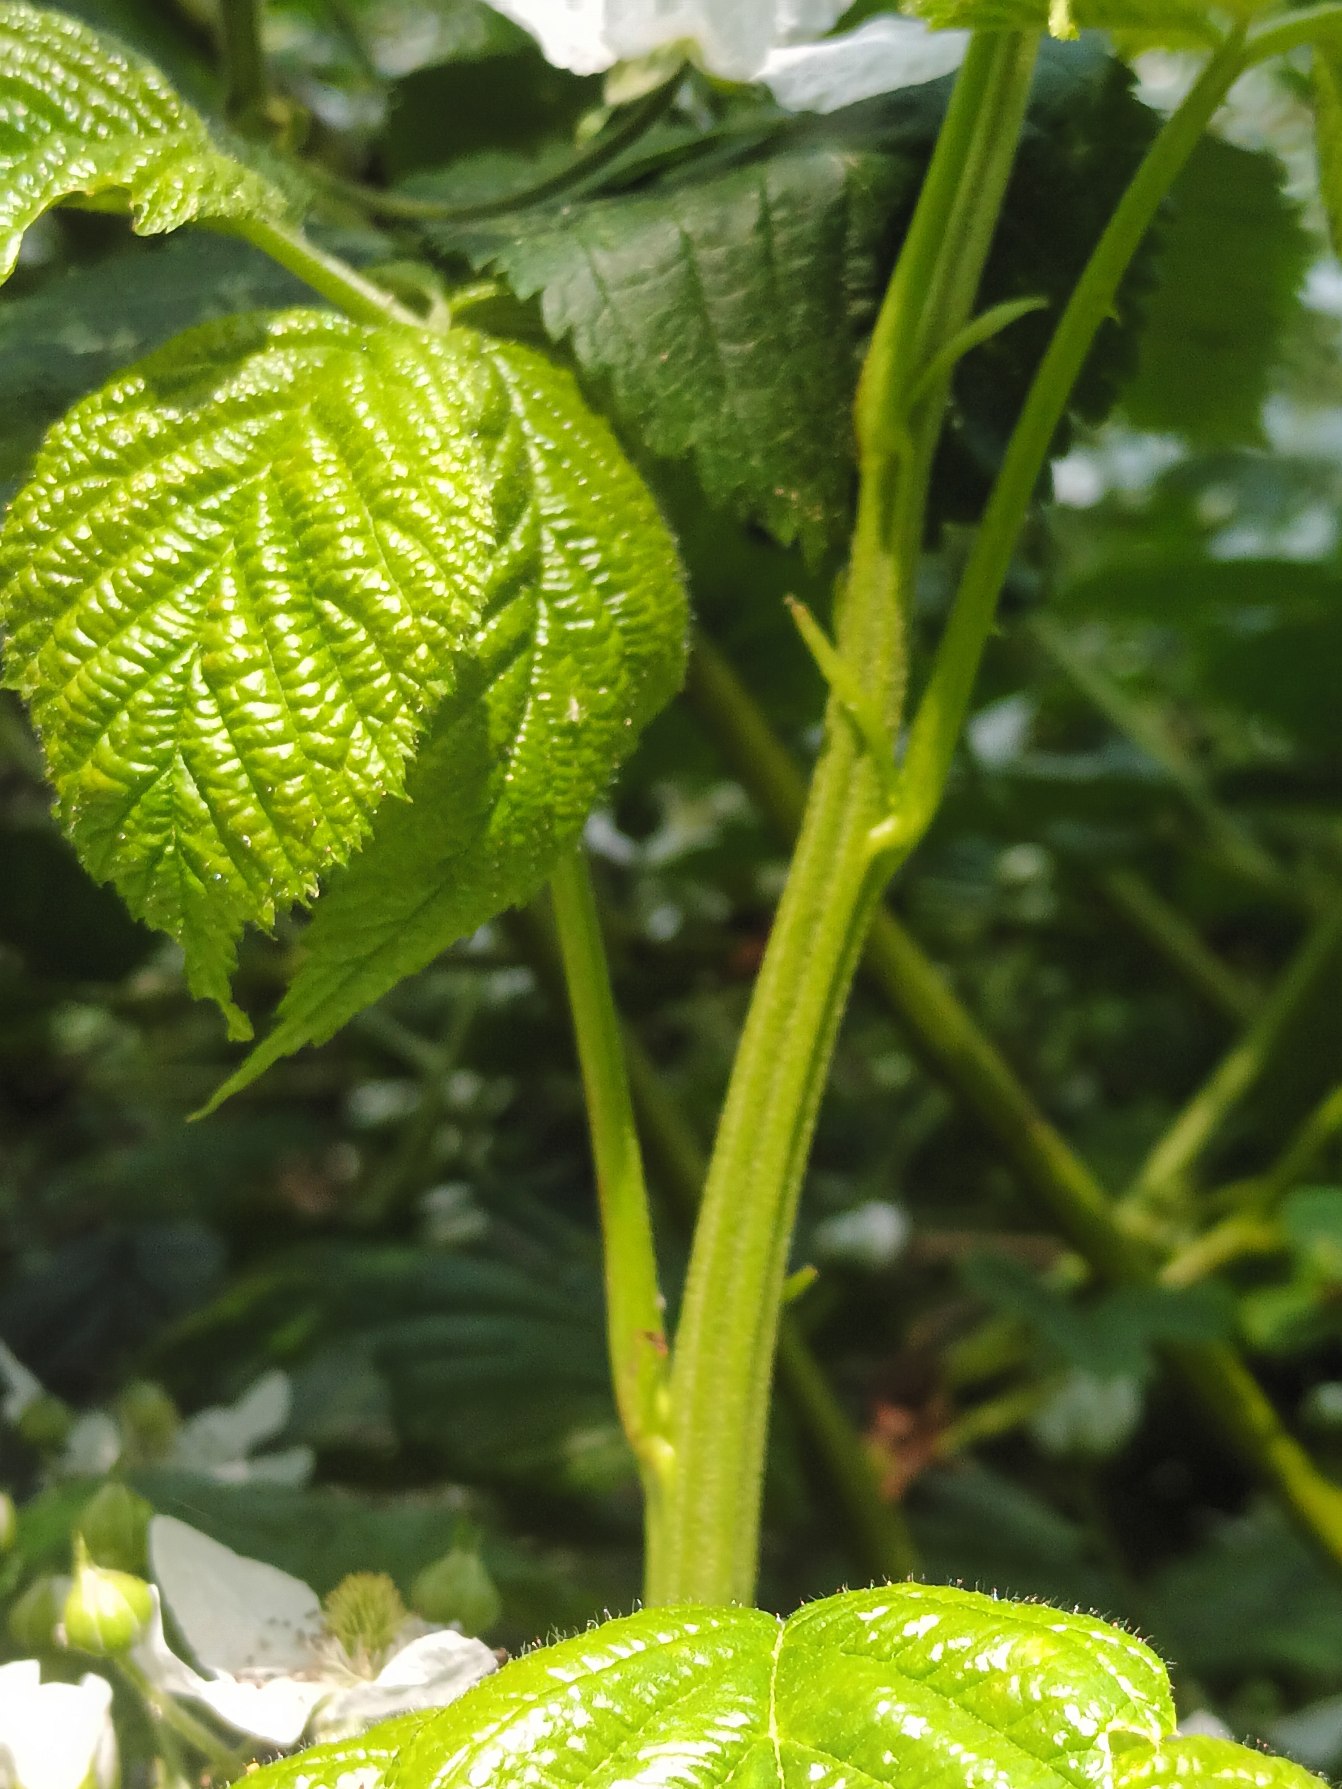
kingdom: Plantae
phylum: Tracheophyta
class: Magnoliopsida
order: Rosales
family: Rosaceae
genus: Rubus
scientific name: Rubus allegheniensis
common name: Allegheny-brombær
